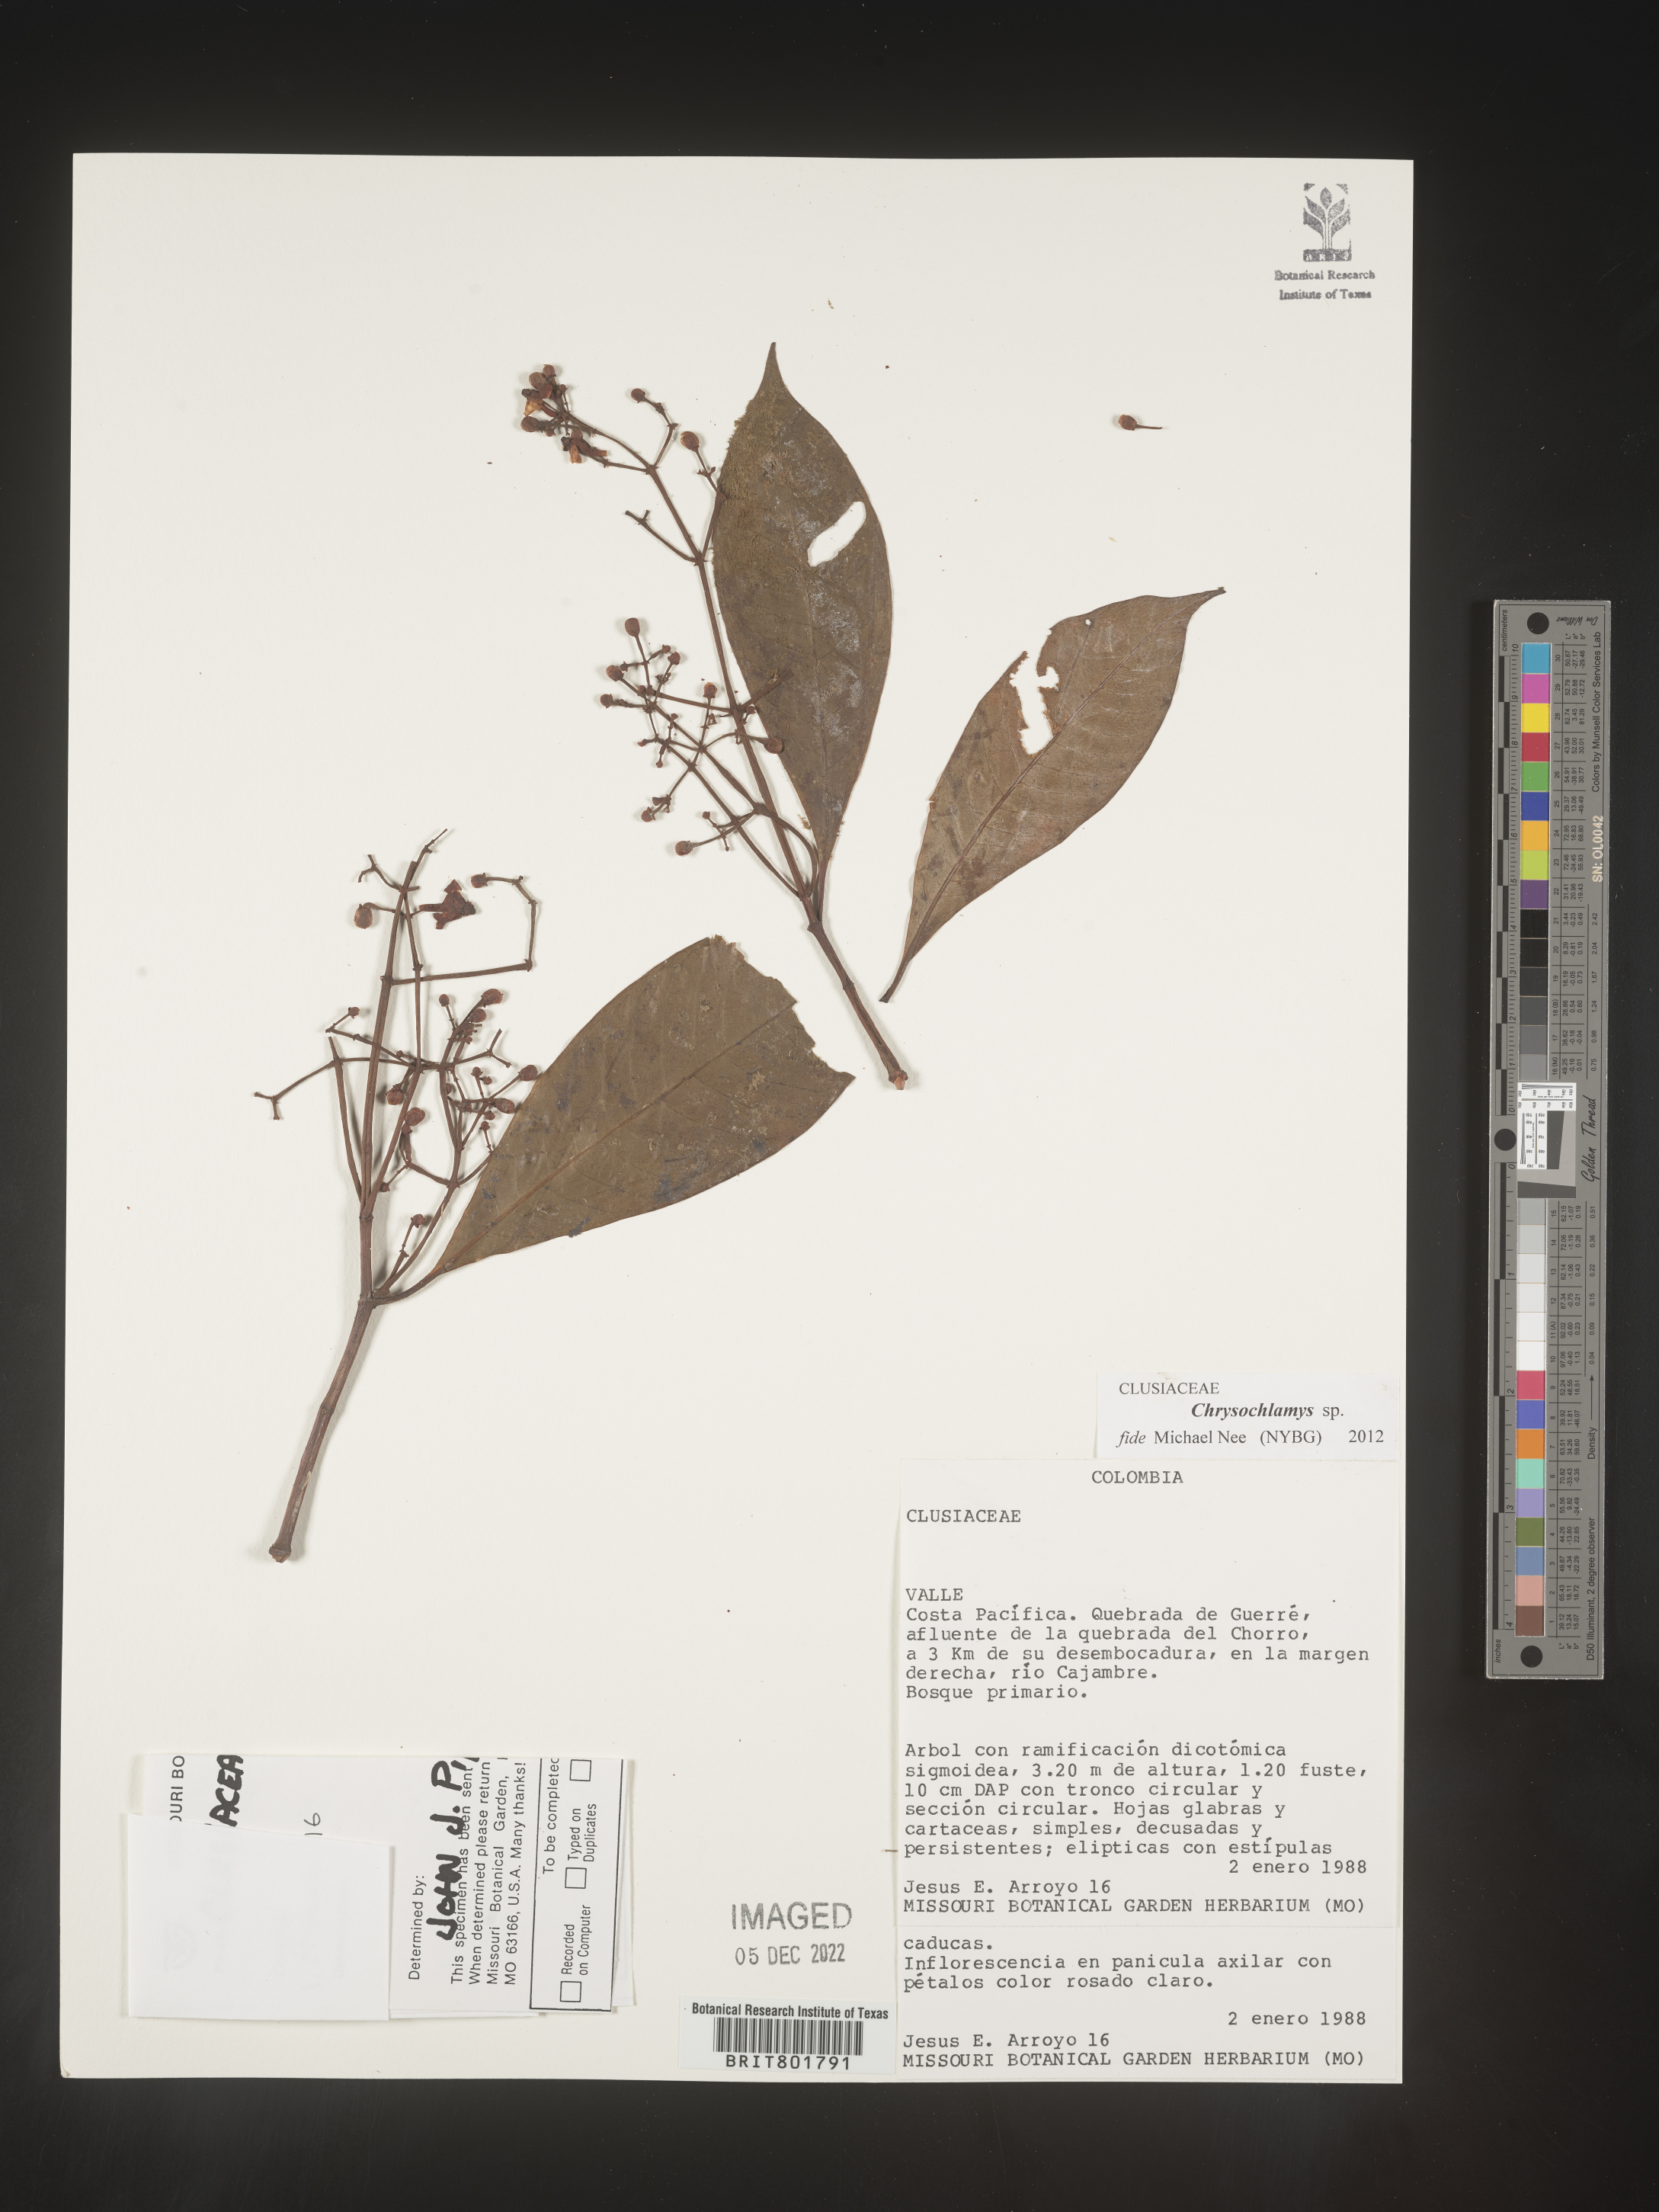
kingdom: Plantae
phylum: Tracheophyta
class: Magnoliopsida
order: Malpighiales
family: Clusiaceae
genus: Chrysochlamys
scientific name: Chrysochlamys
